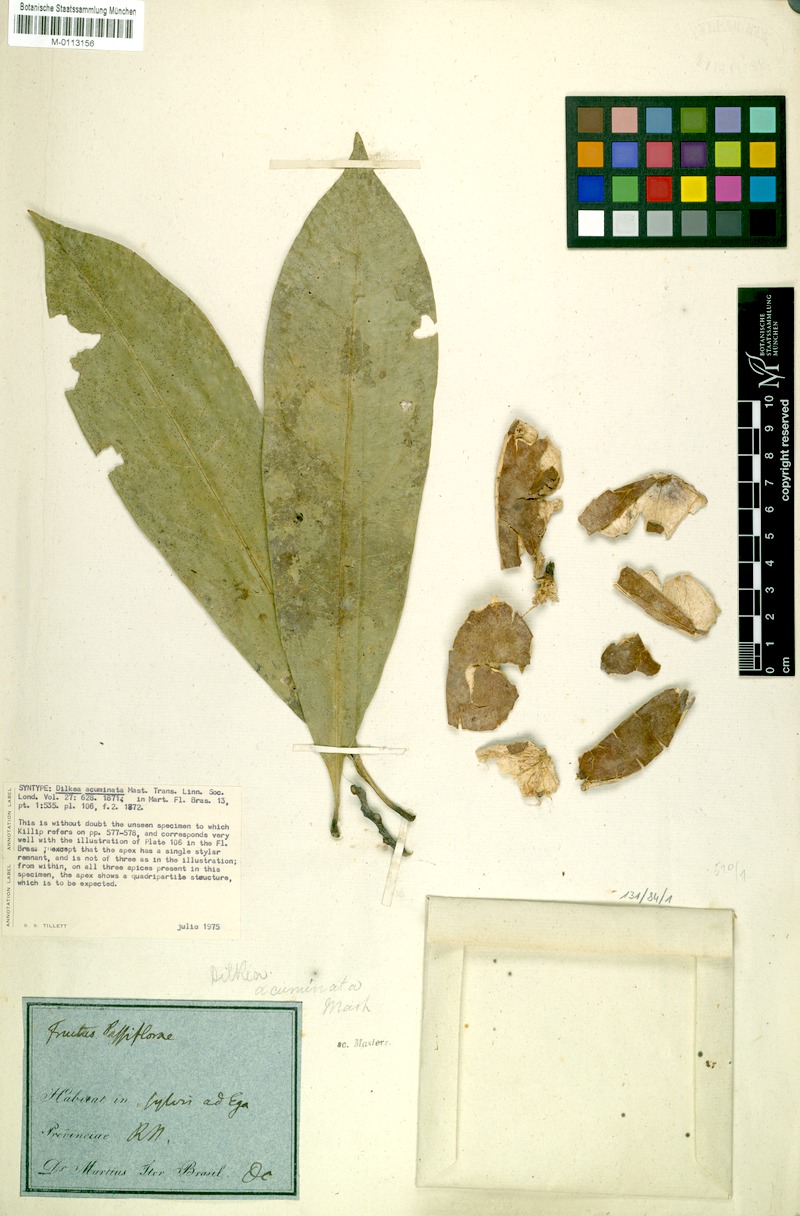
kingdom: Plantae
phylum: Tracheophyta
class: Magnoliopsida
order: Malpighiales
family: Passifloraceae
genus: Dilkea
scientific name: Dilkea acuminata
